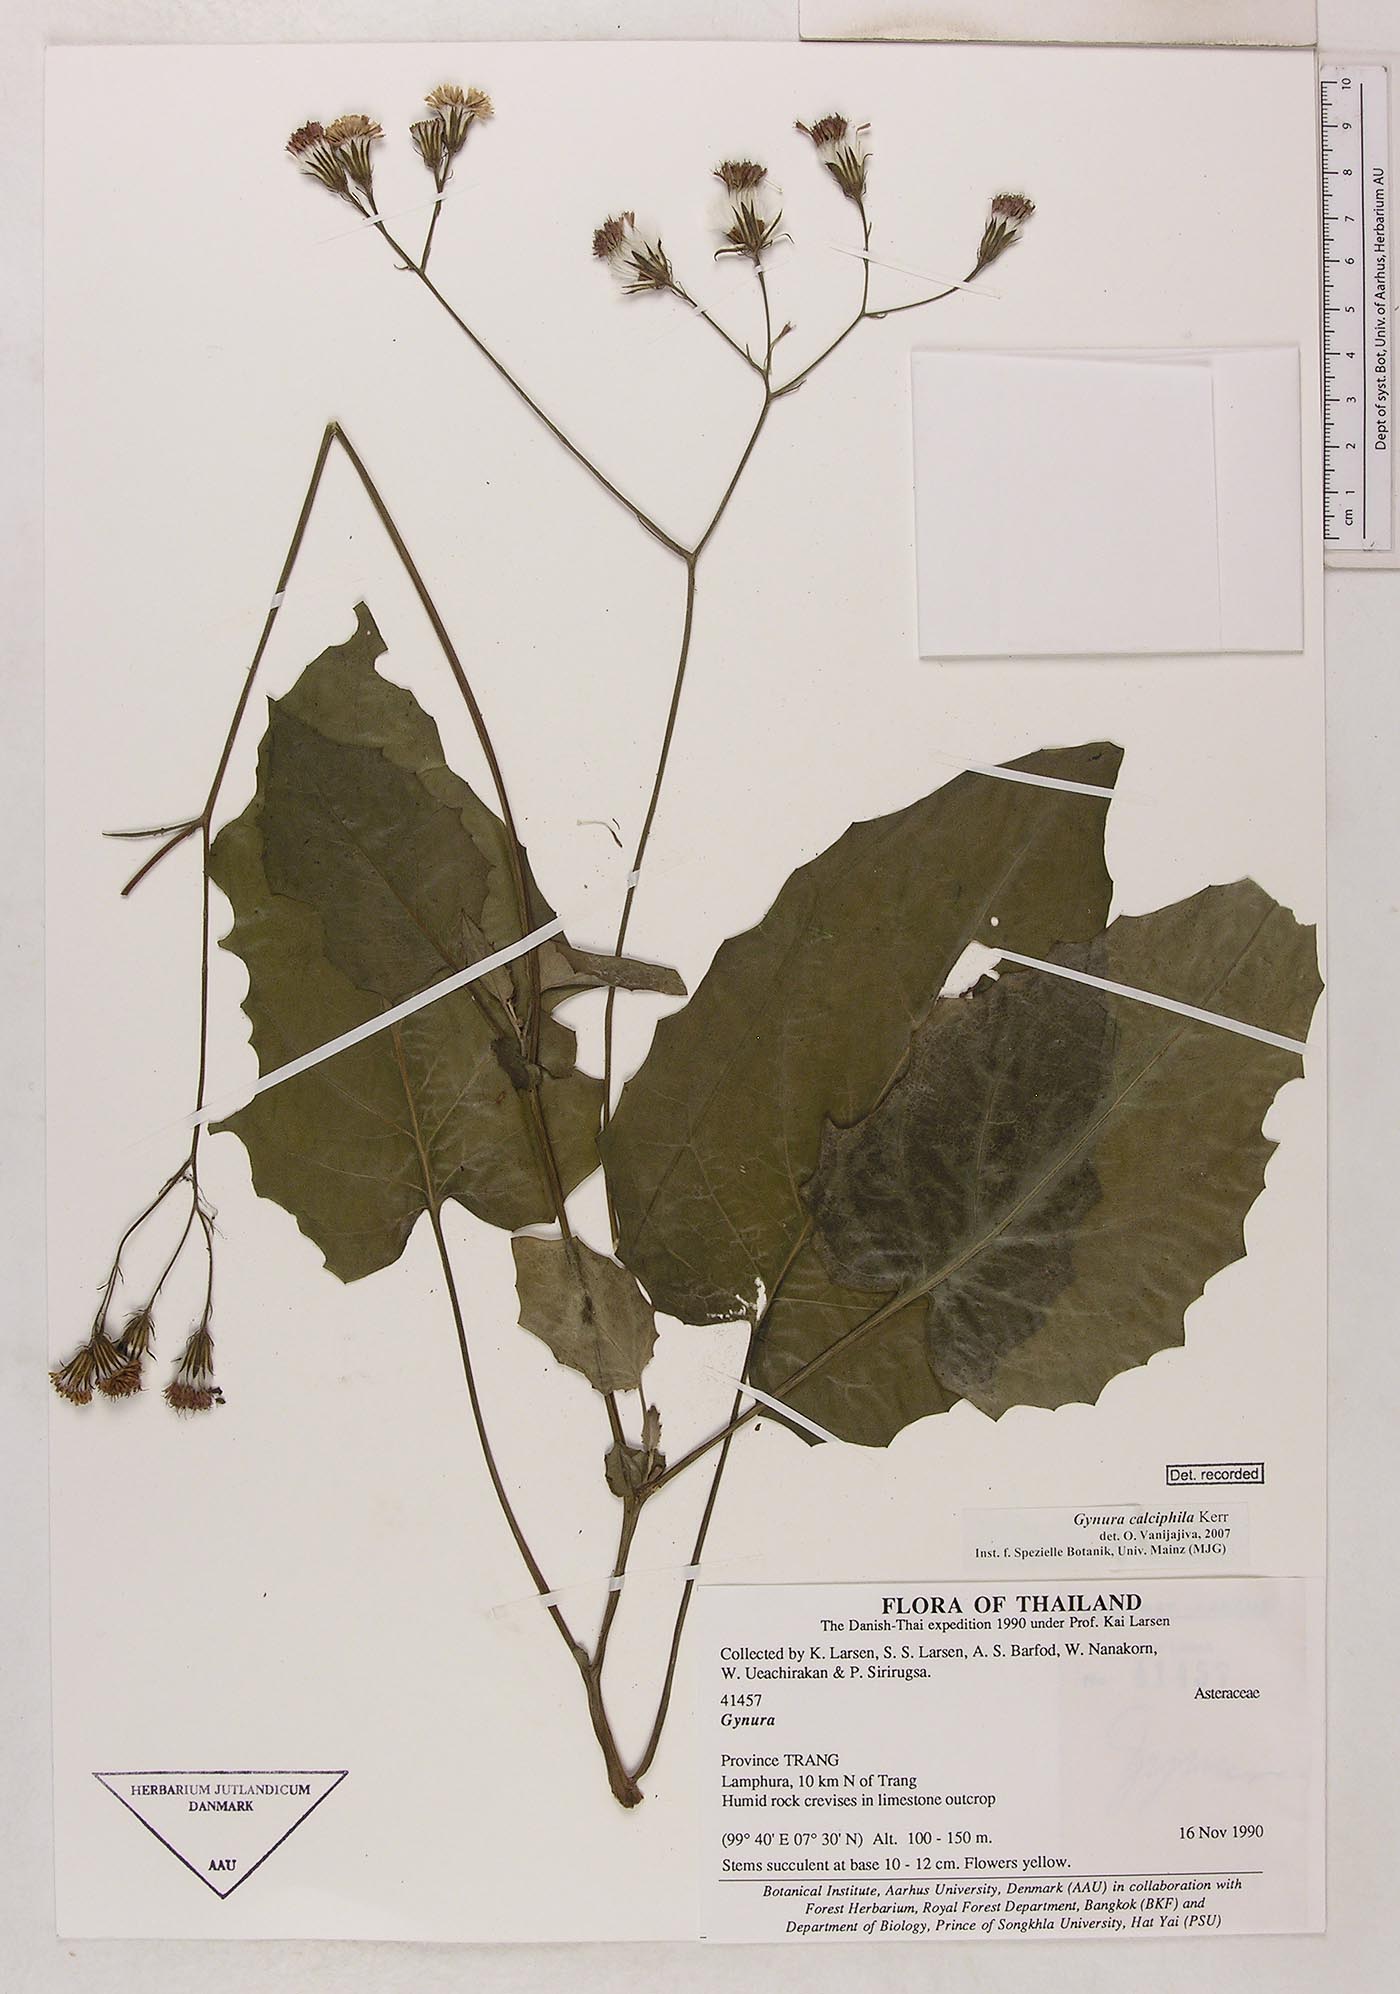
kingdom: Plantae
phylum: Tracheophyta
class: Magnoliopsida
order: Asterales
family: Asteraceae
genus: Gynura
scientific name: Gynura calciphila
